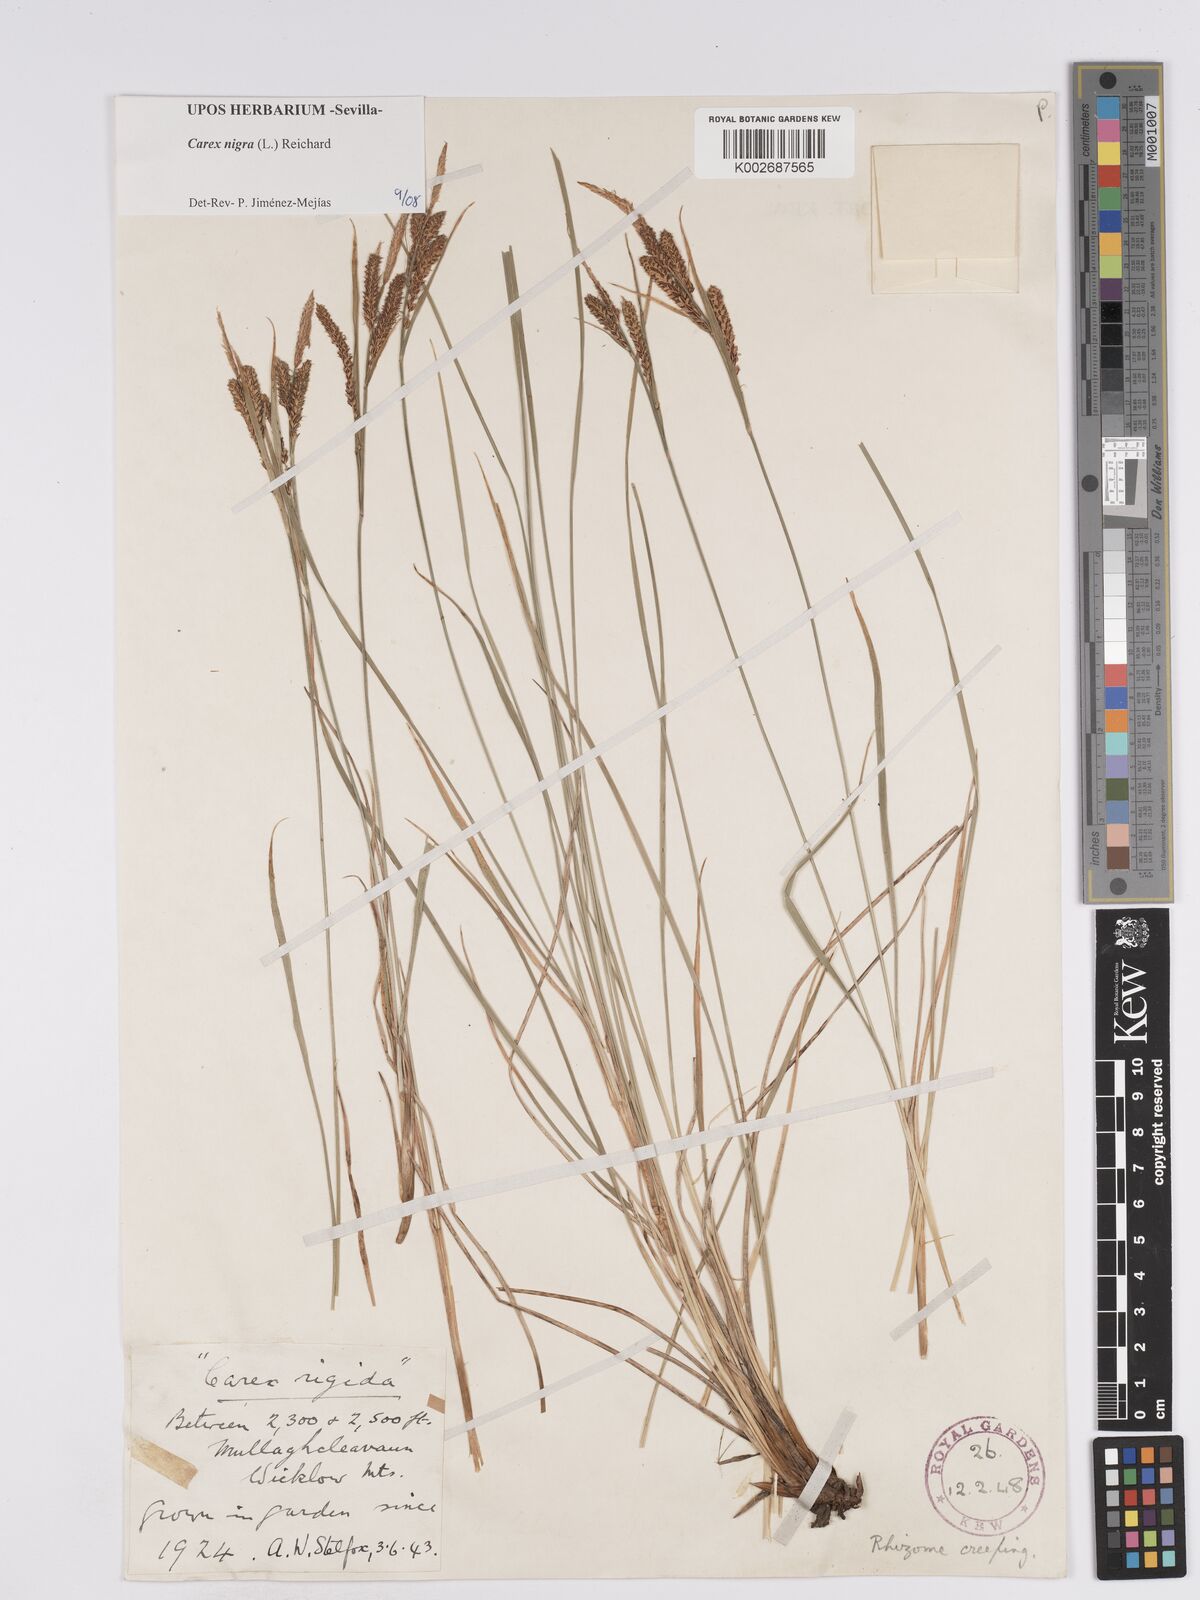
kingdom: Plantae
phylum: Tracheophyta
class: Liliopsida
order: Poales
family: Cyperaceae
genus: Carex
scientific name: Carex nigra
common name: Common sedge
